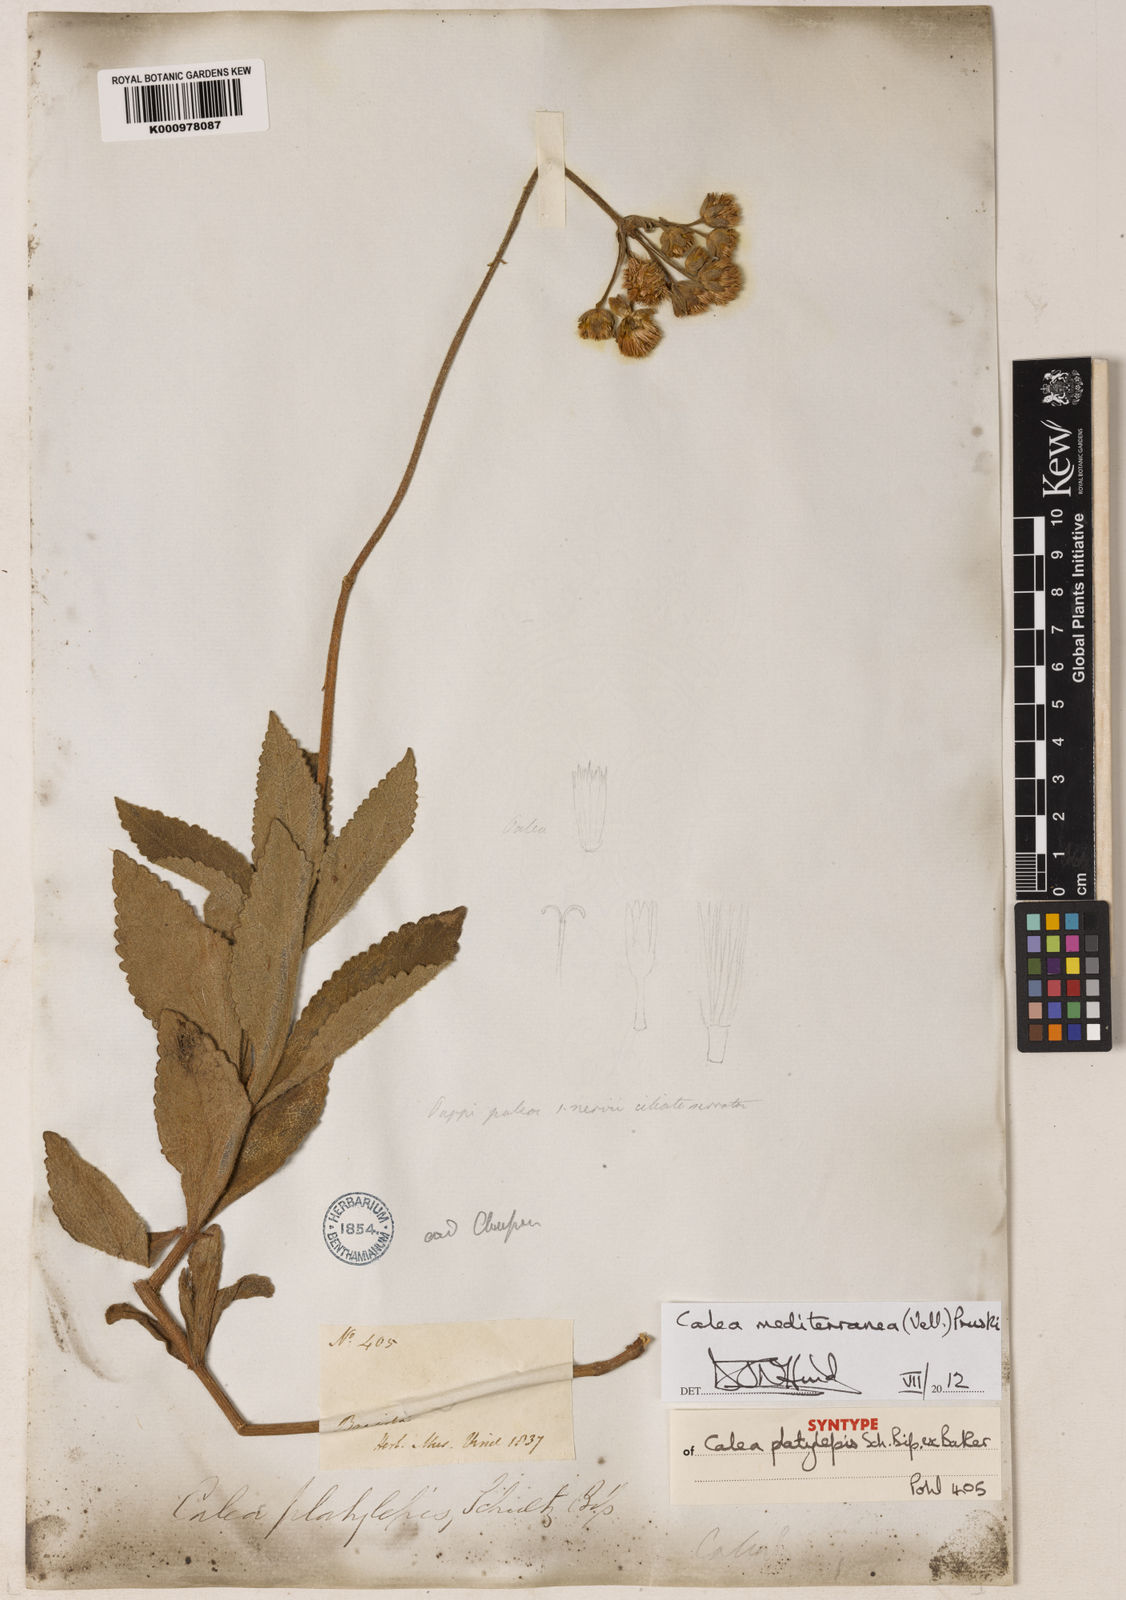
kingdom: Plantae
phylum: Tracheophyta
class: Magnoliopsida
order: Asterales
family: Asteraceae
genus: Calea
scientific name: Calea mediterranea
